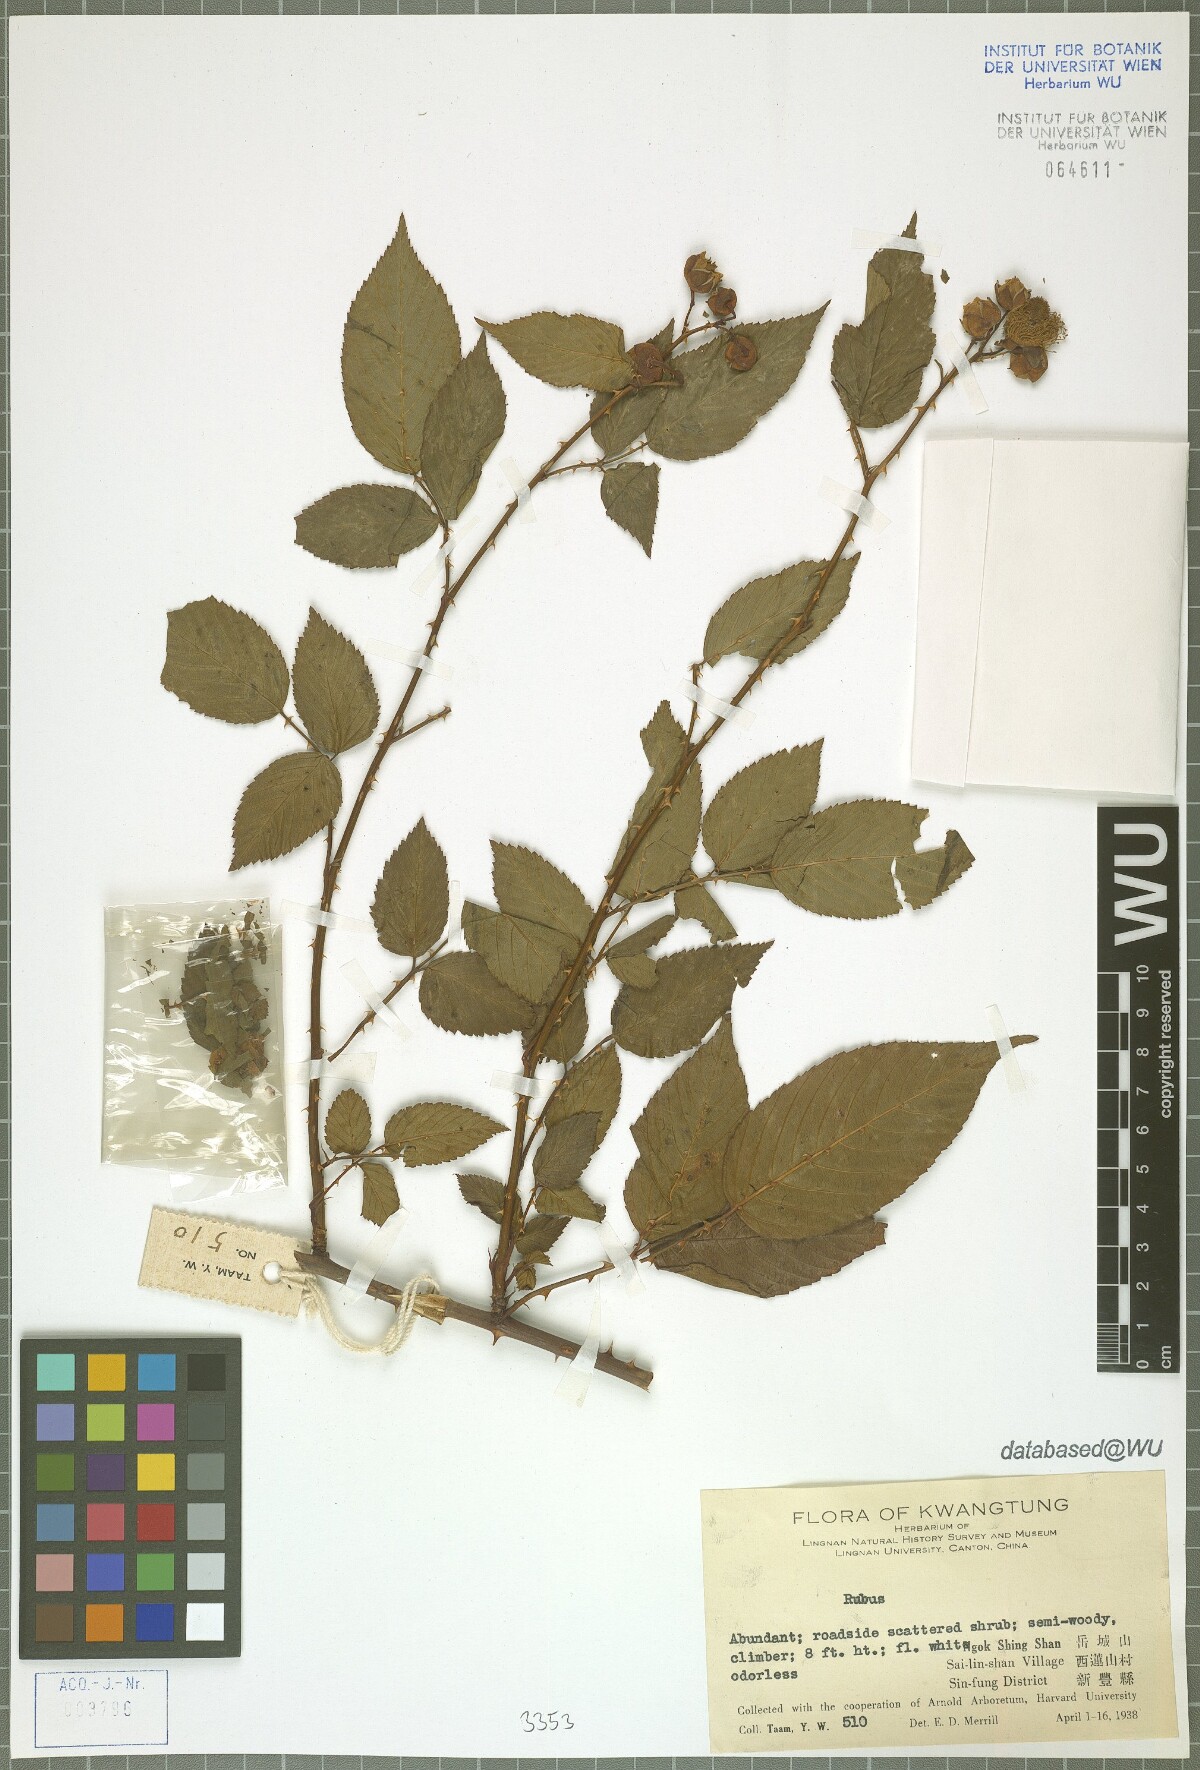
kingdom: Plantae
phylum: Tracheophyta
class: Magnoliopsida
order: Rosales
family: Rosaceae
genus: Rubus
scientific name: Rubus
